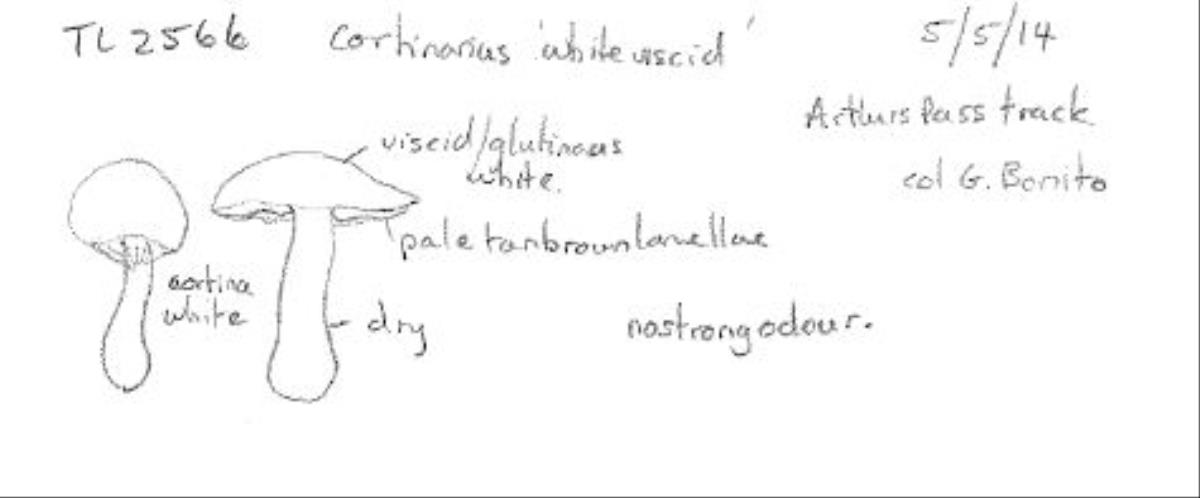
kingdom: Fungi
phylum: Basidiomycota
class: Agaricomycetes
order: Agaricales
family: Cortinariaceae
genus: Cortinarius
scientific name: Cortinarius
